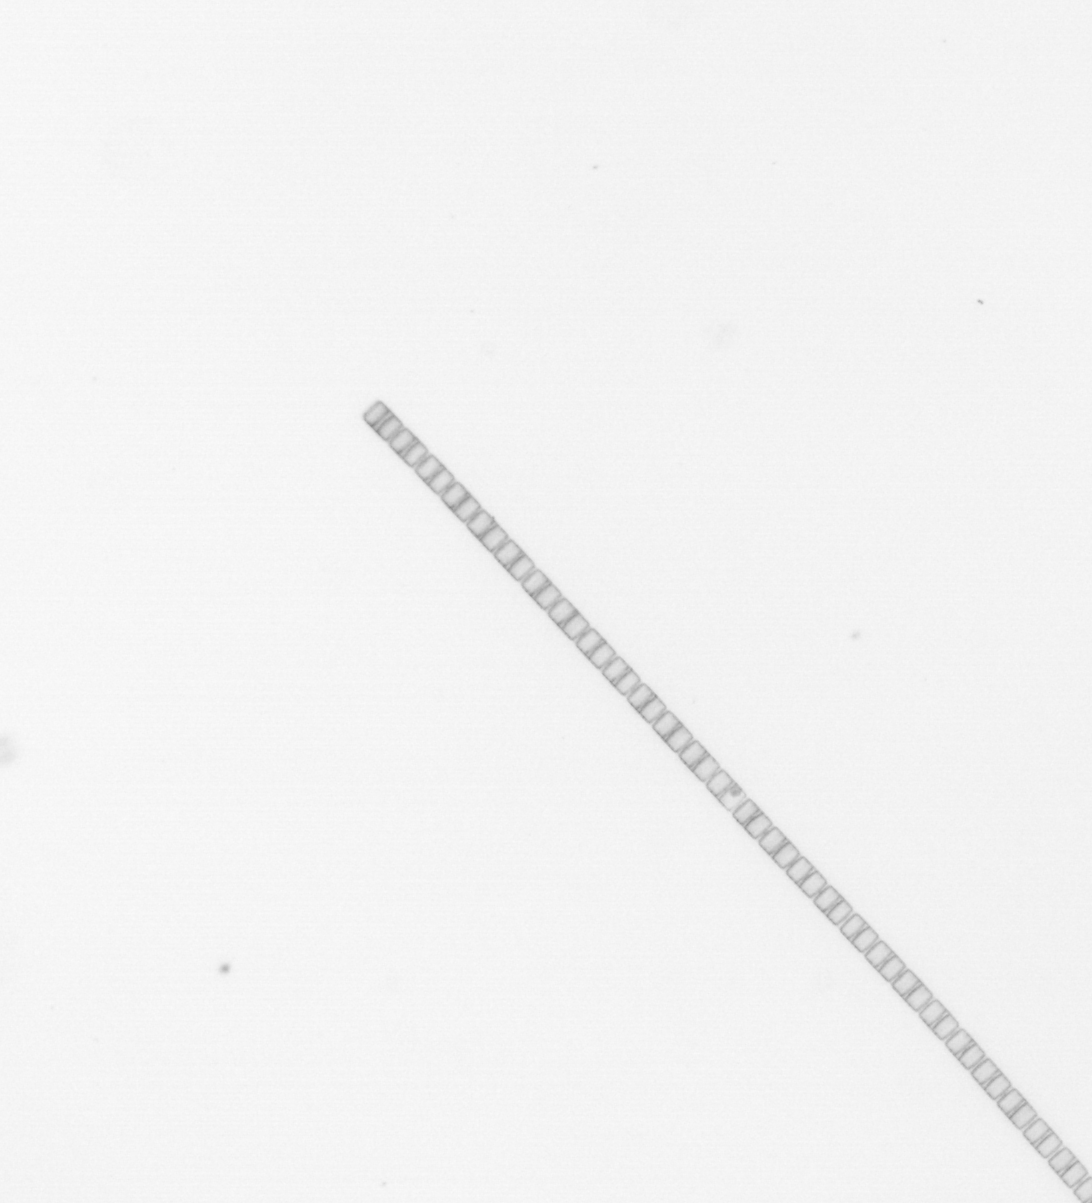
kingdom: Chromista
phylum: Ochrophyta
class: Bacillariophyceae
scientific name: Bacillariophyceae
